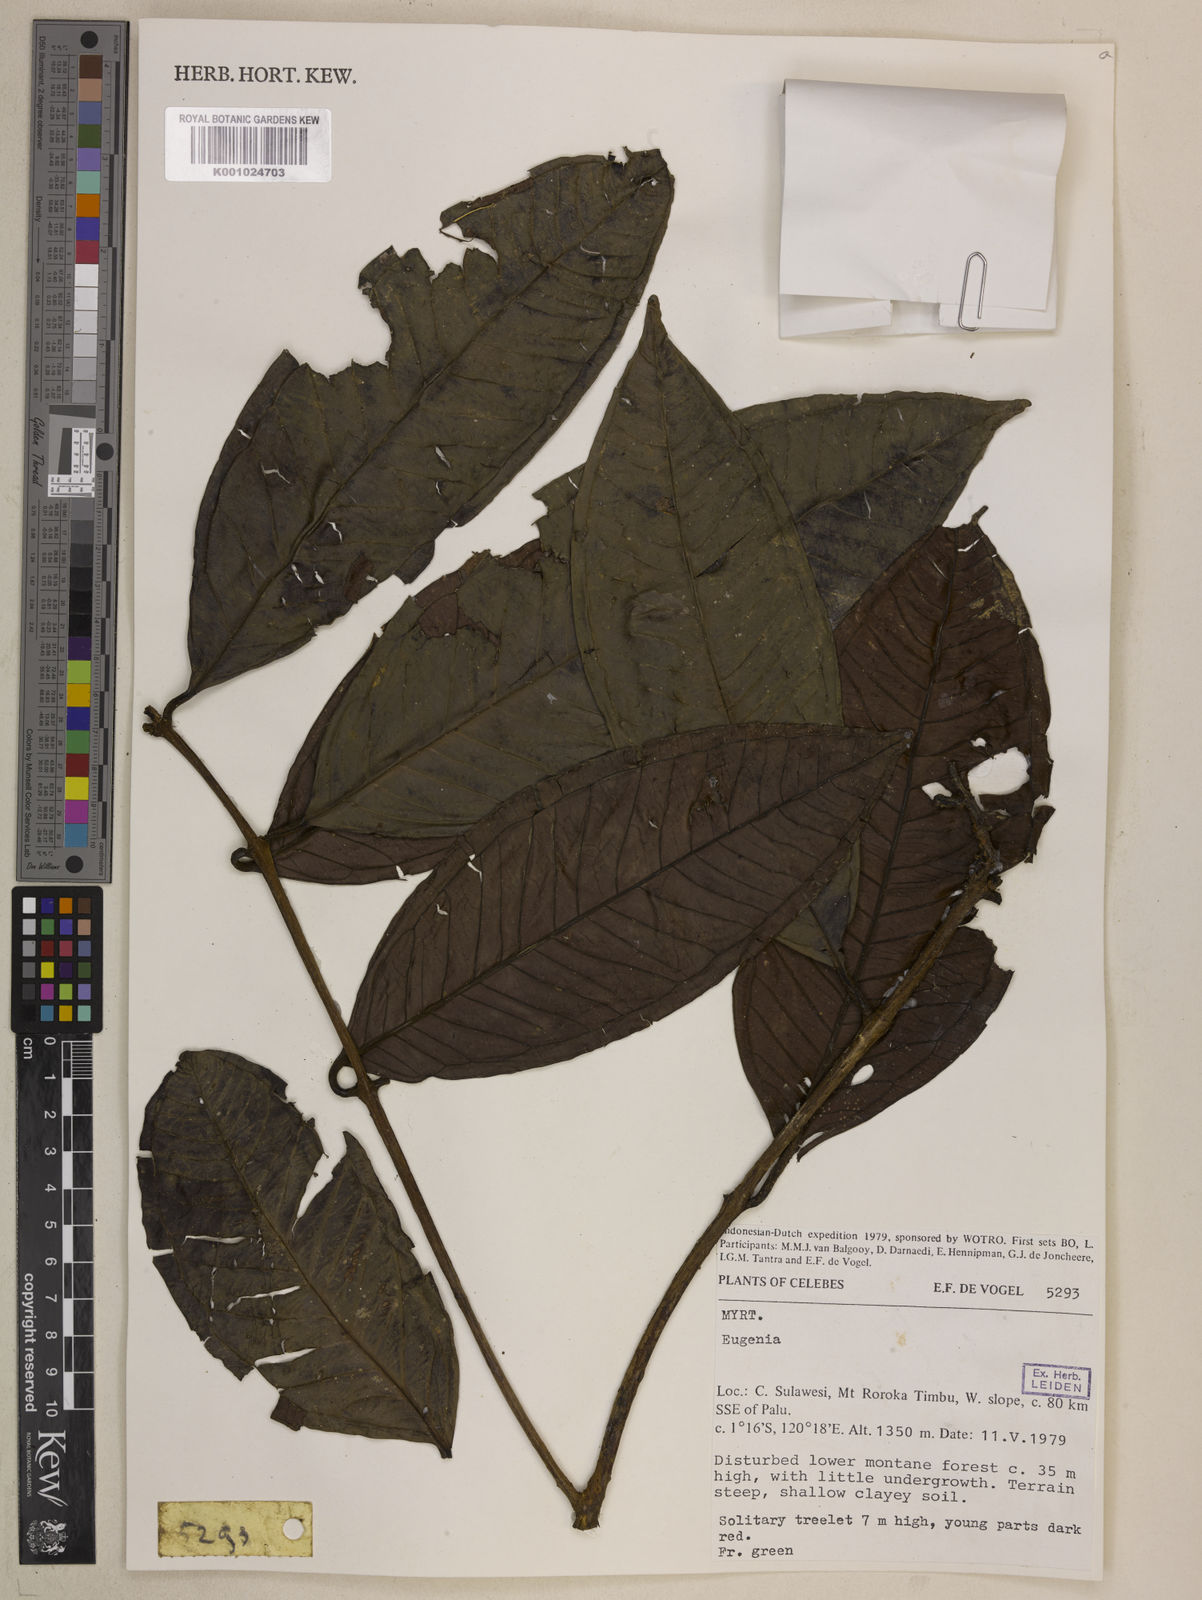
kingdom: Plantae
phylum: Tracheophyta
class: Magnoliopsida
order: Myrtales
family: Myrtaceae
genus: Syzygium
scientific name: Syzygium devogelii
